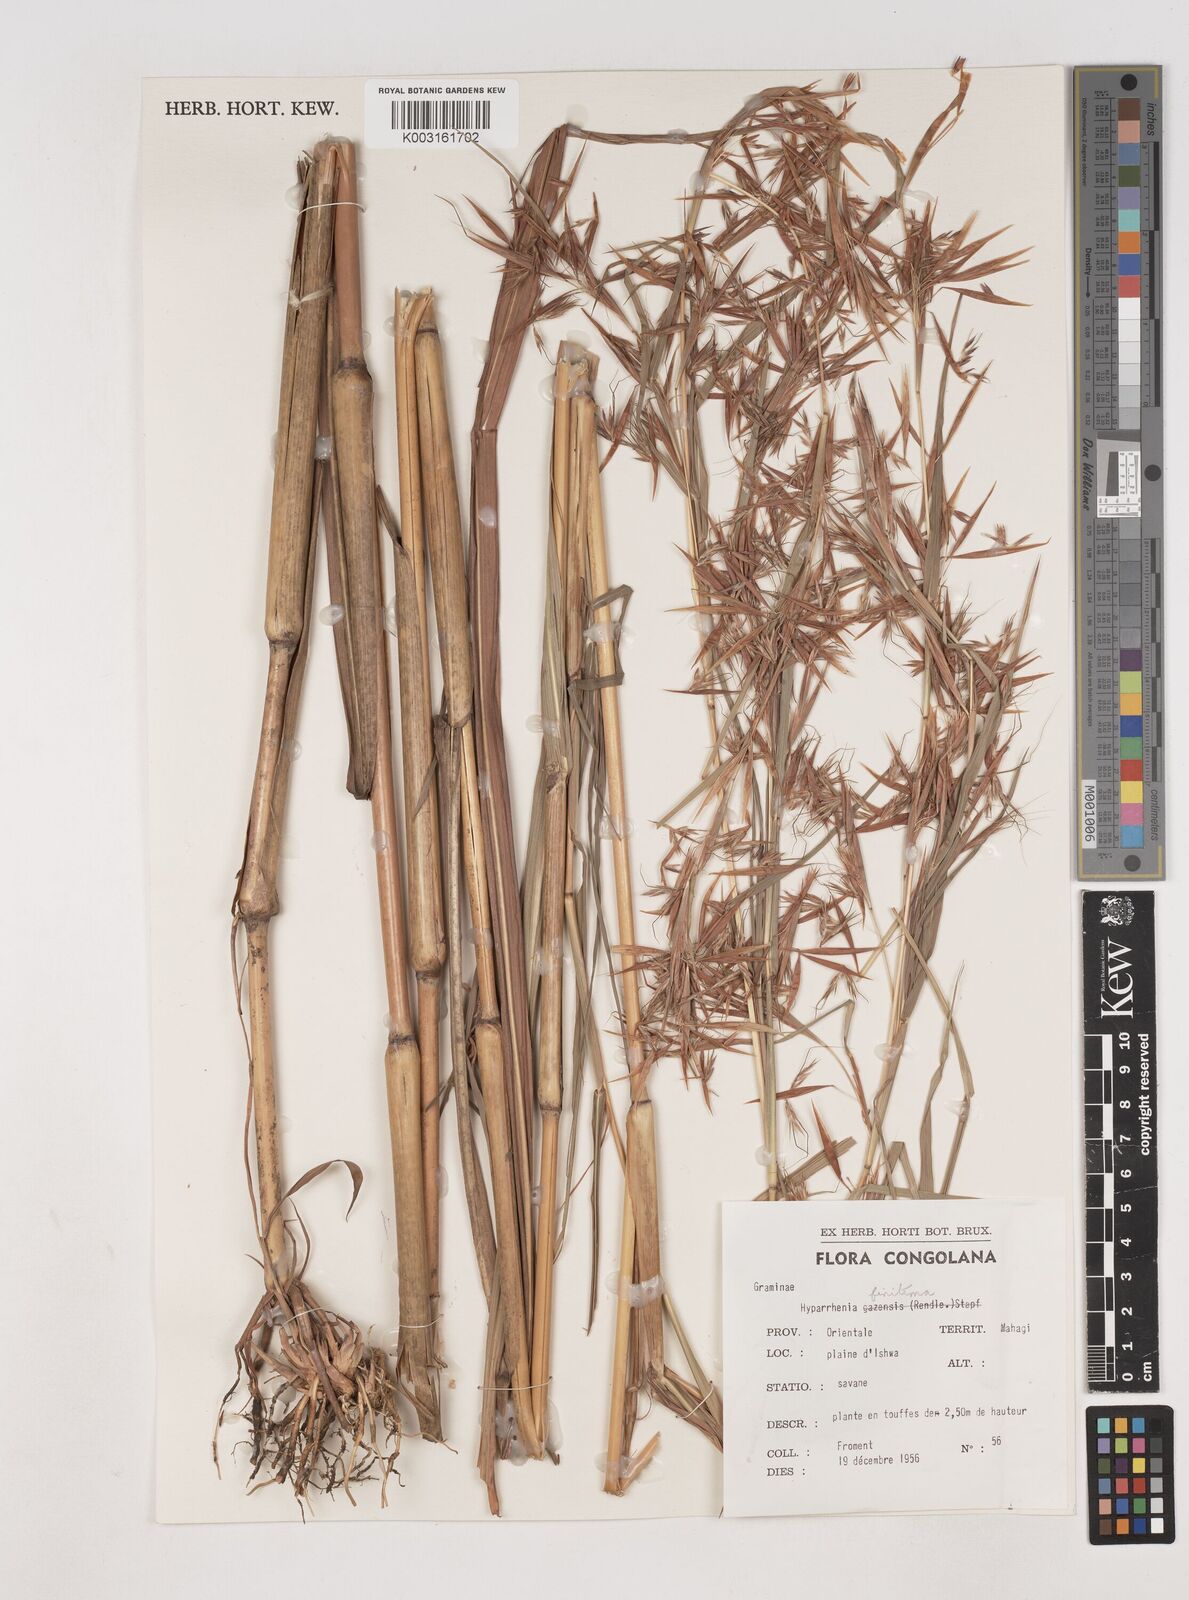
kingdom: Plantae
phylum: Tracheophyta
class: Liliopsida
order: Poales
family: Poaceae
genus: Hyparrhenia
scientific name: Hyparrhenia finitima
